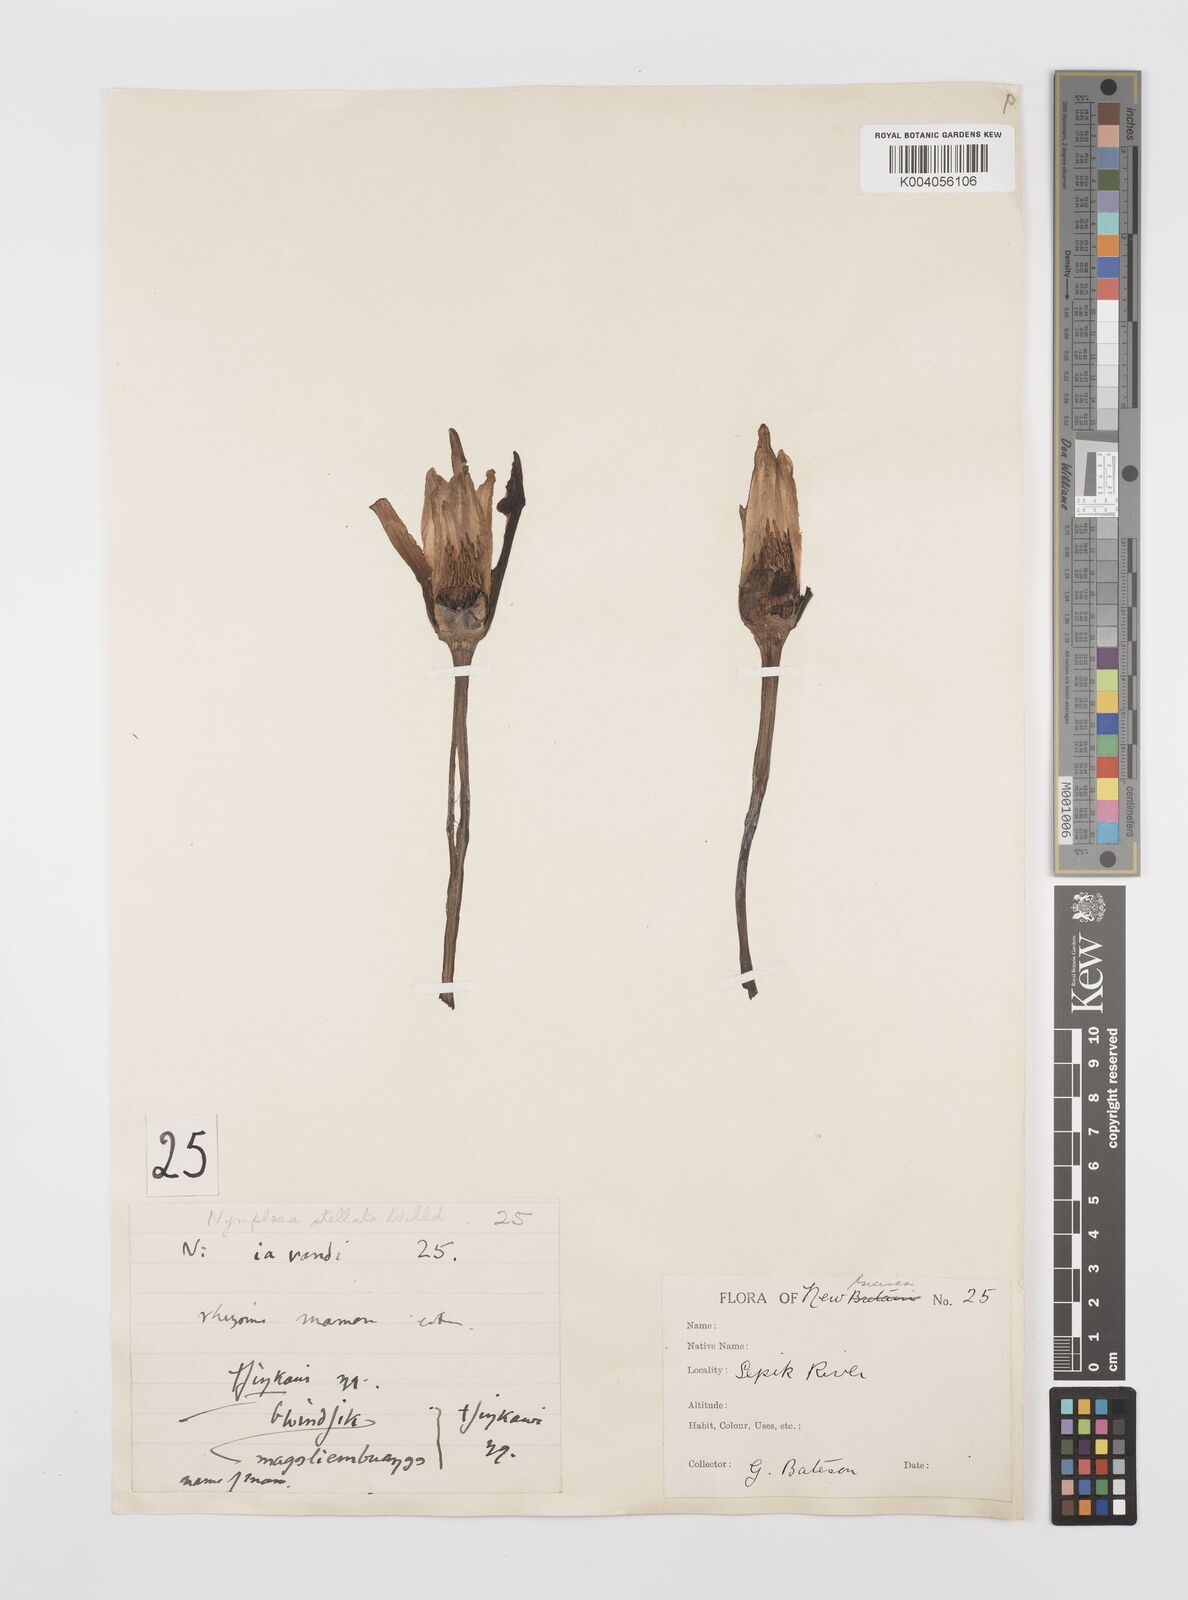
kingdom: Plantae
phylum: Tracheophyta
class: Magnoliopsida
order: Nymphaeales
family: Nymphaeaceae
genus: Nymphaea
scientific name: Nymphaea nouchali
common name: Blue lotus
